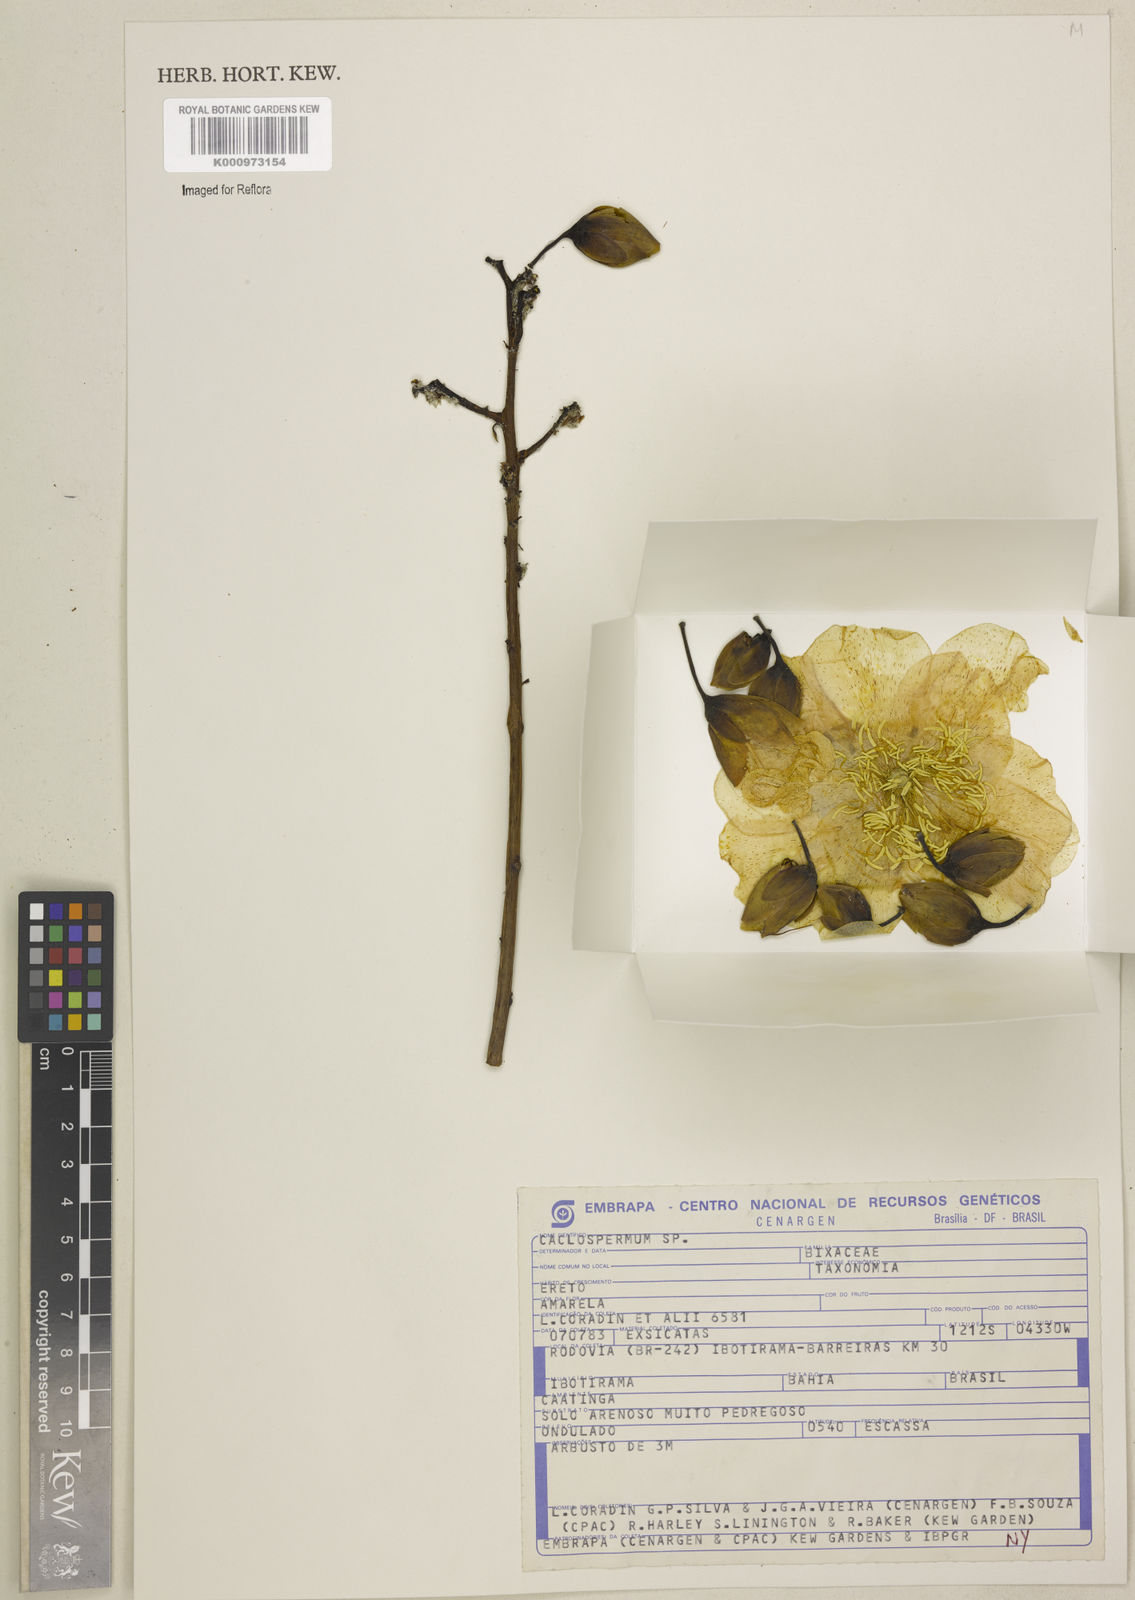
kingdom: Plantae
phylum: Tracheophyta
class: Magnoliopsida
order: Malvales
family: Cochlospermaceae
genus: Cochlospermum
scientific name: Cochlospermum
